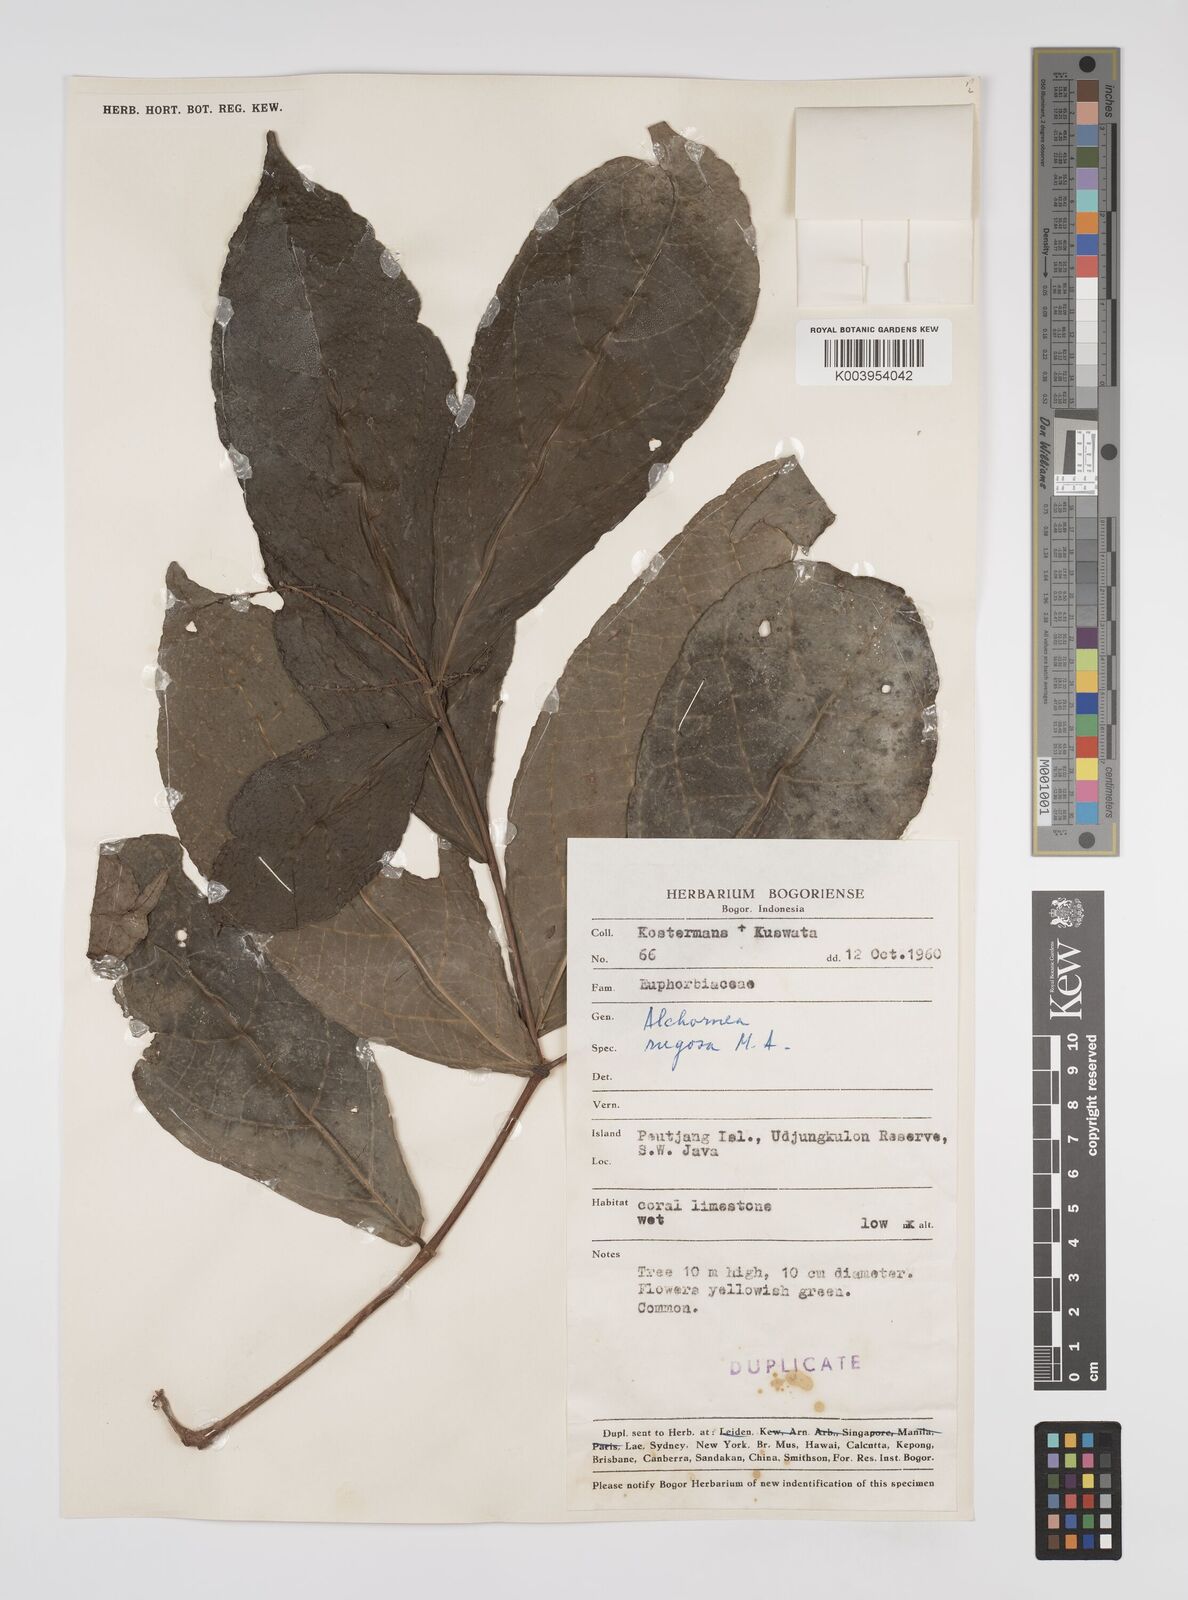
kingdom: Plantae
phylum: Tracheophyta
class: Magnoliopsida
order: Malpighiales
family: Euphorbiaceae
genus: Alchornea
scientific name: Alchornea rugosa
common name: Alchorntree
